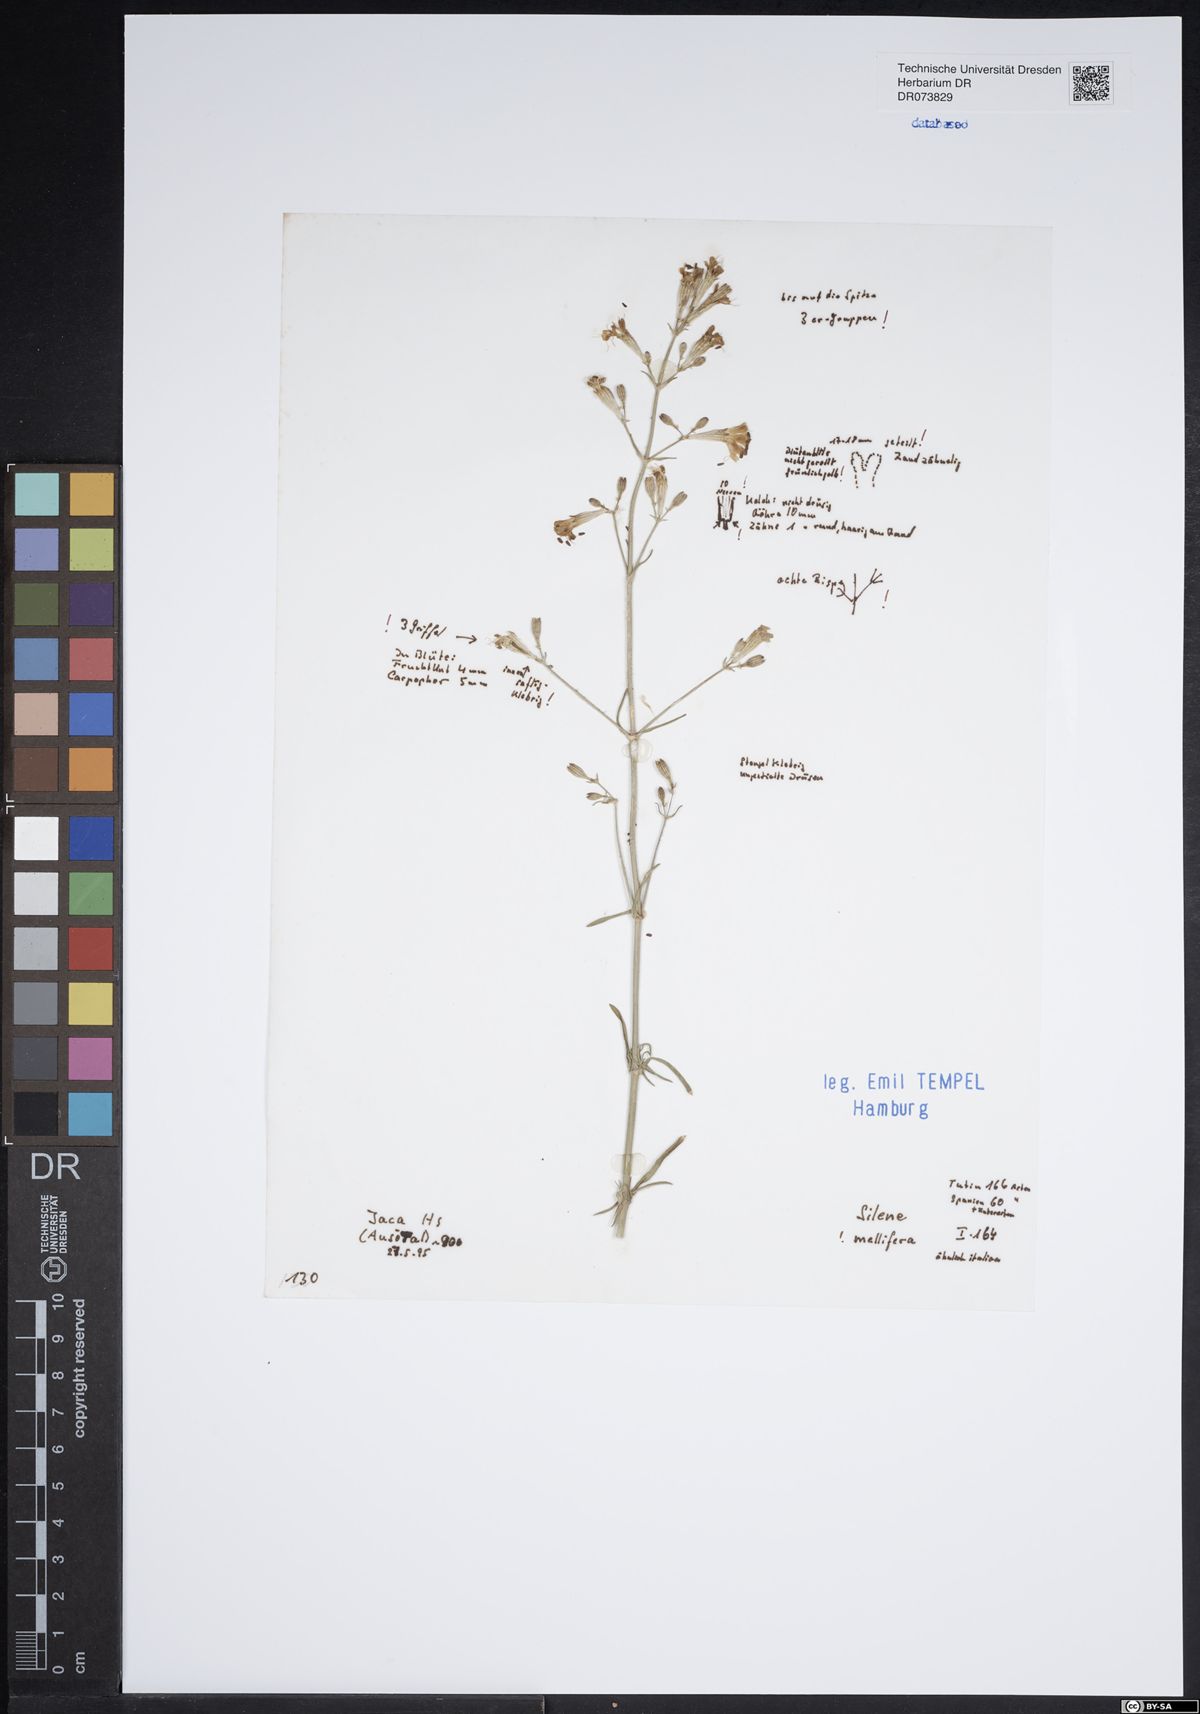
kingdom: Plantae
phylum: Tracheophyta
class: Magnoliopsida
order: Caryophyllales
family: Caryophyllaceae
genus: Silene
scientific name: Silene mellifera
